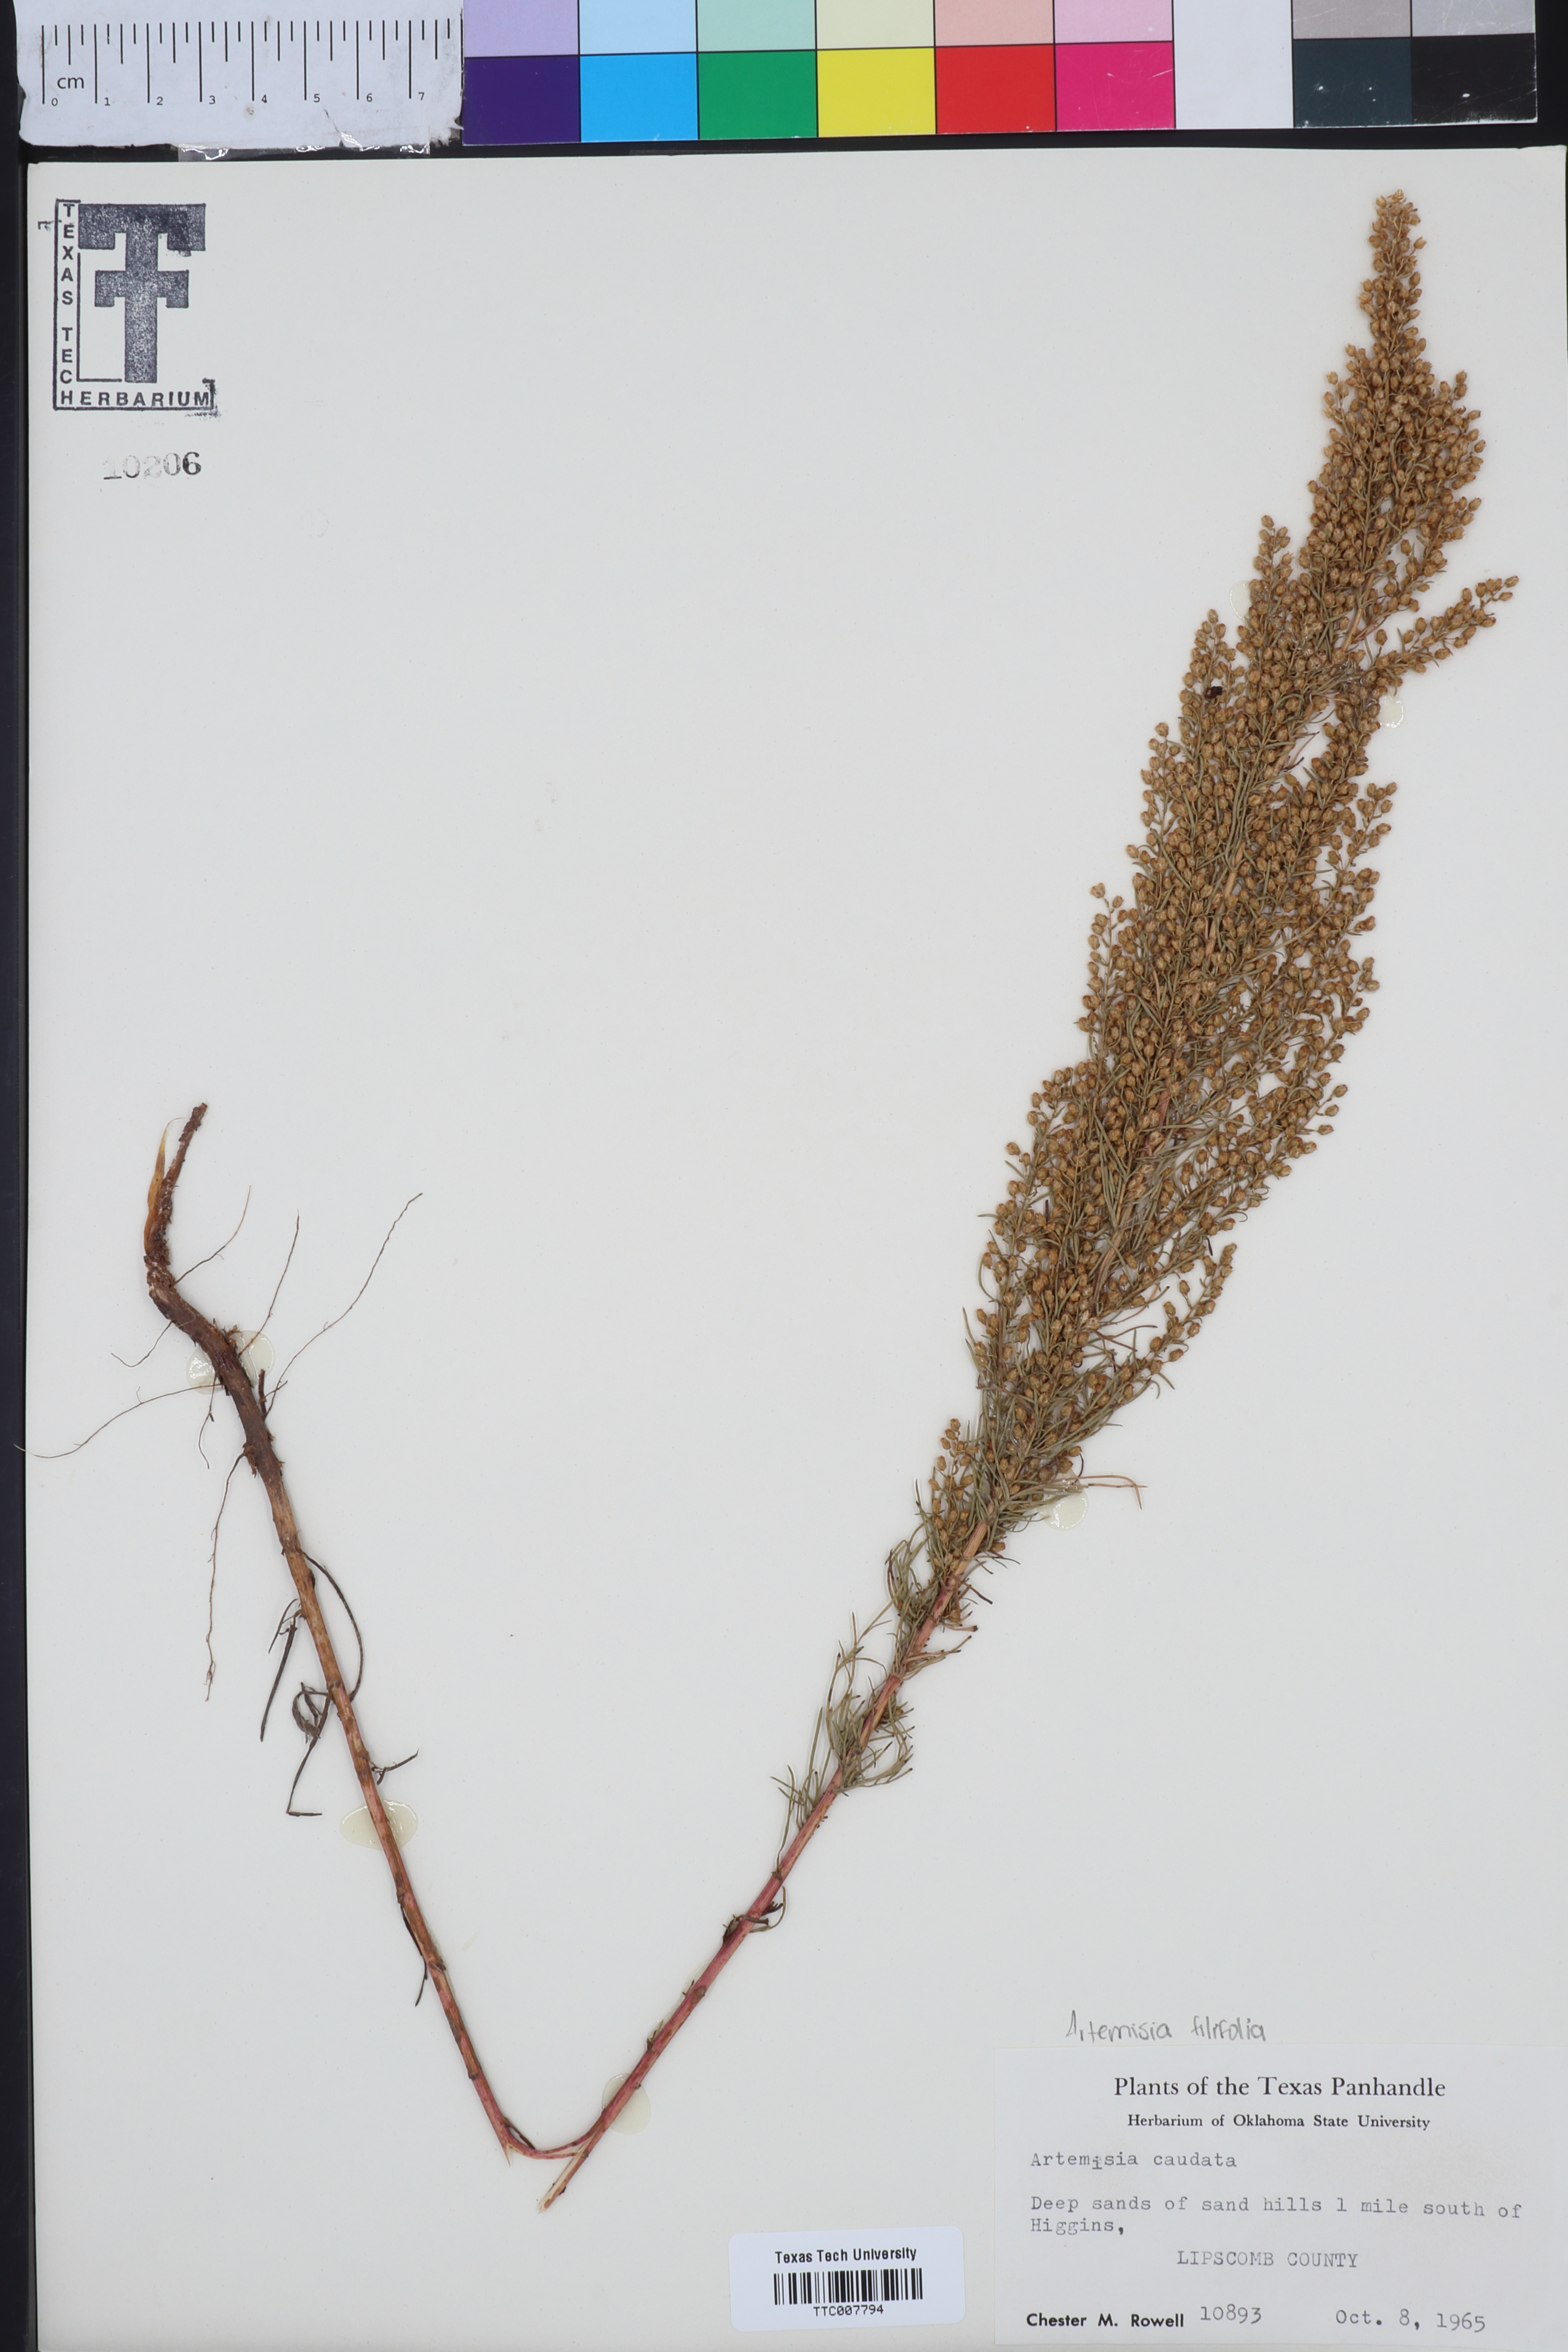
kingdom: Plantae
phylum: Tracheophyta
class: Magnoliopsida
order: Asterales
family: Asteraceae
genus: Artemisia
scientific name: Artemisia campestris
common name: Field wormwood
